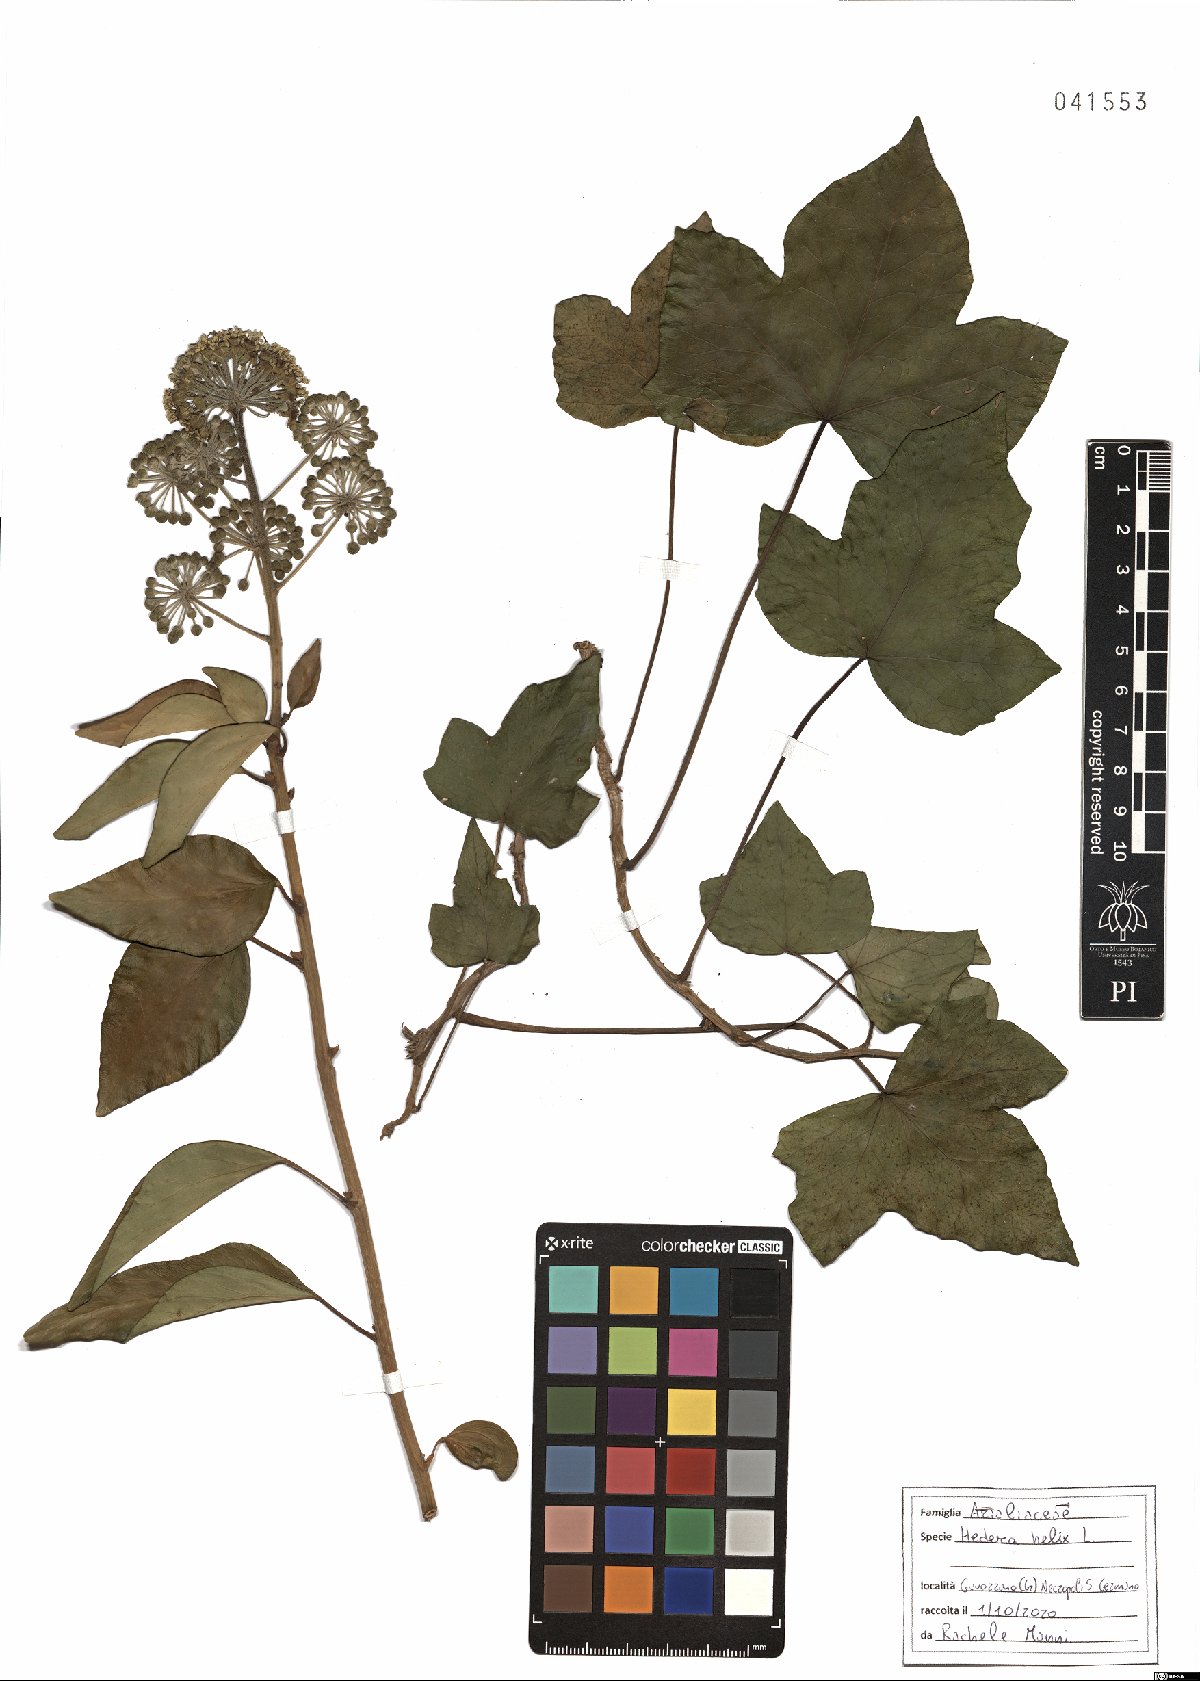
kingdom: Plantae
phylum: Tracheophyta
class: Magnoliopsida
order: Apiales
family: Araliaceae
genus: Hedera
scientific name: Hedera helix
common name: Ivy
